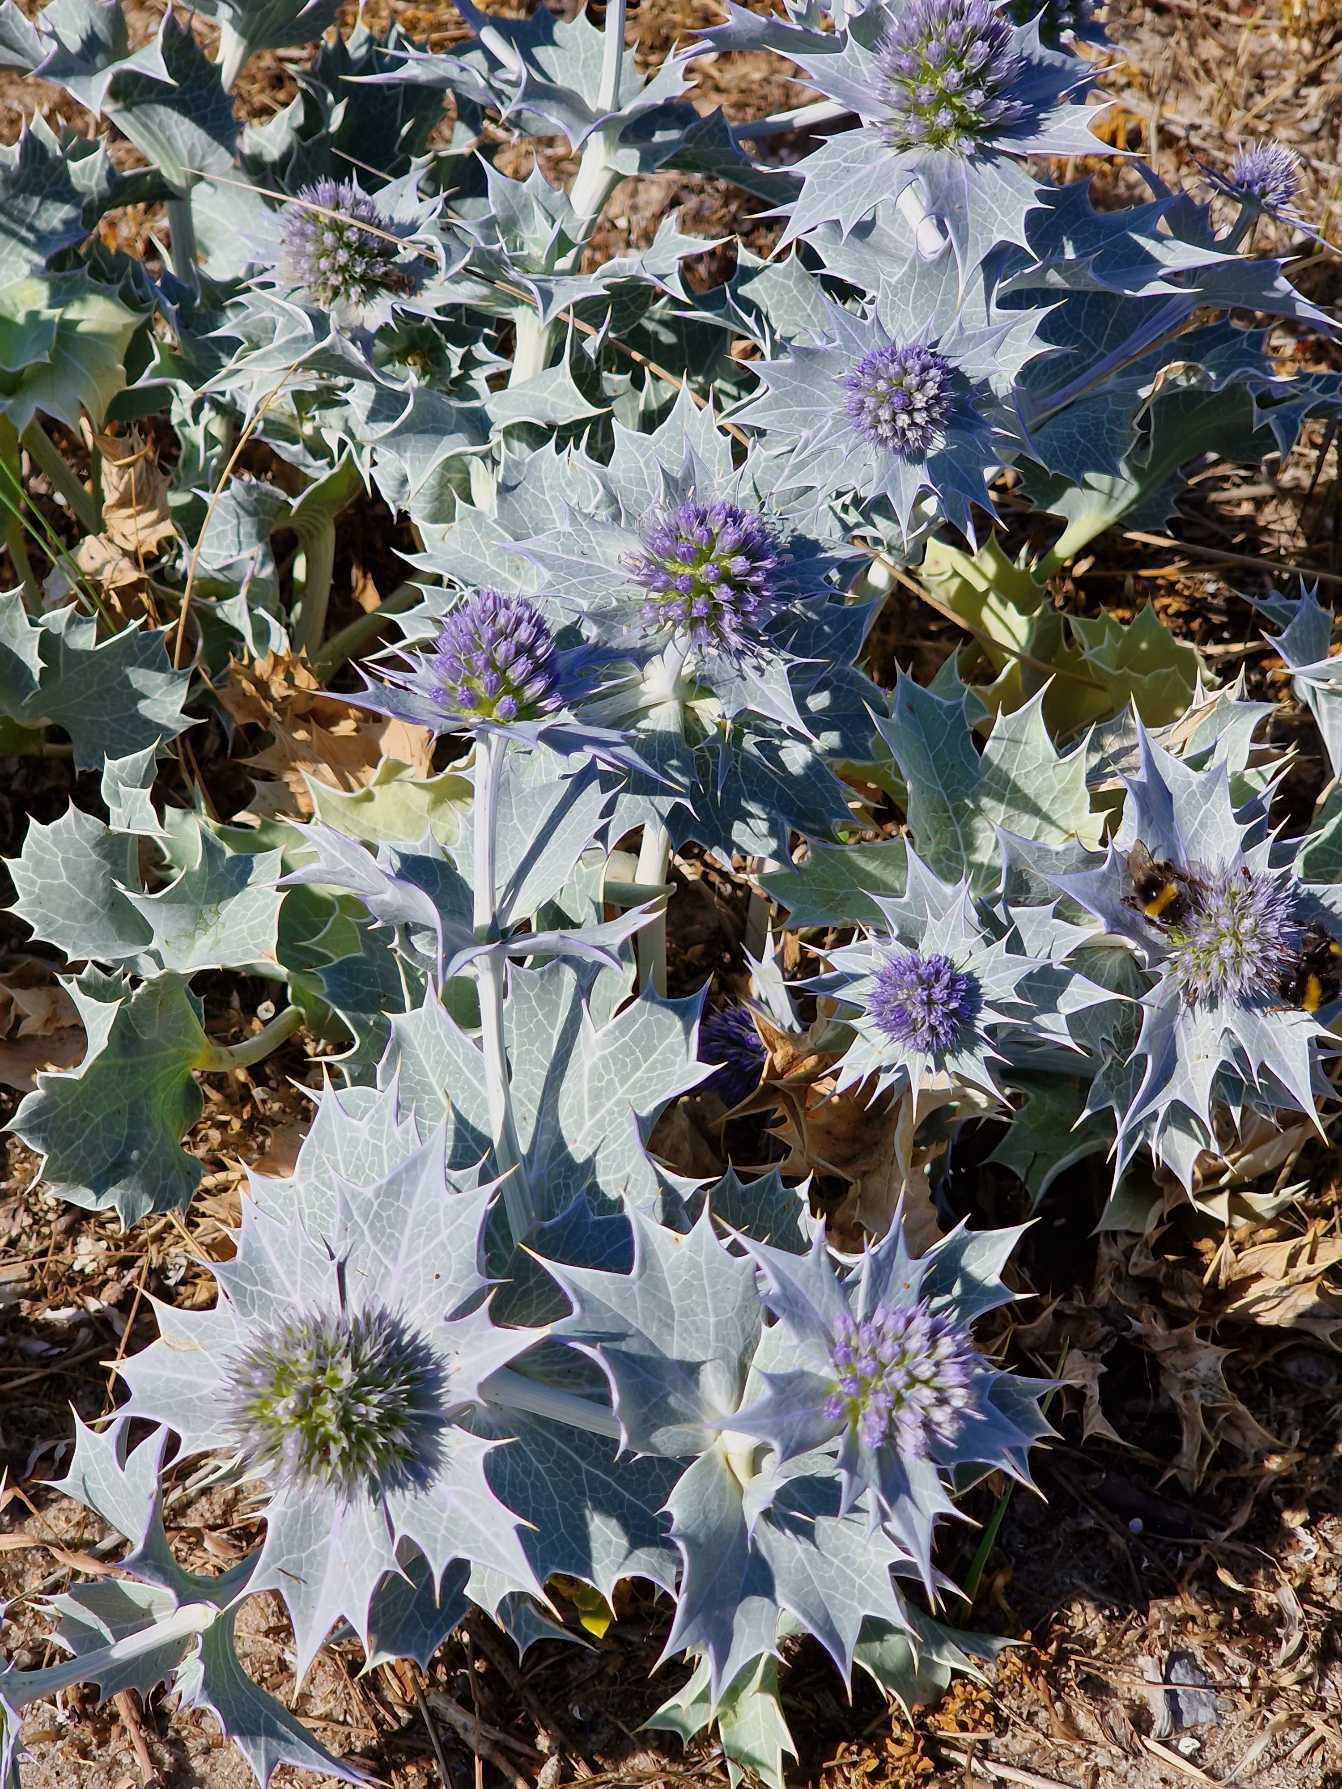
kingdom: Plantae
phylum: Tracheophyta
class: Magnoliopsida
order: Apiales
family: Apiaceae
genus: Eryngium
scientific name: Eryngium maritimum
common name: Strand-mandstro
